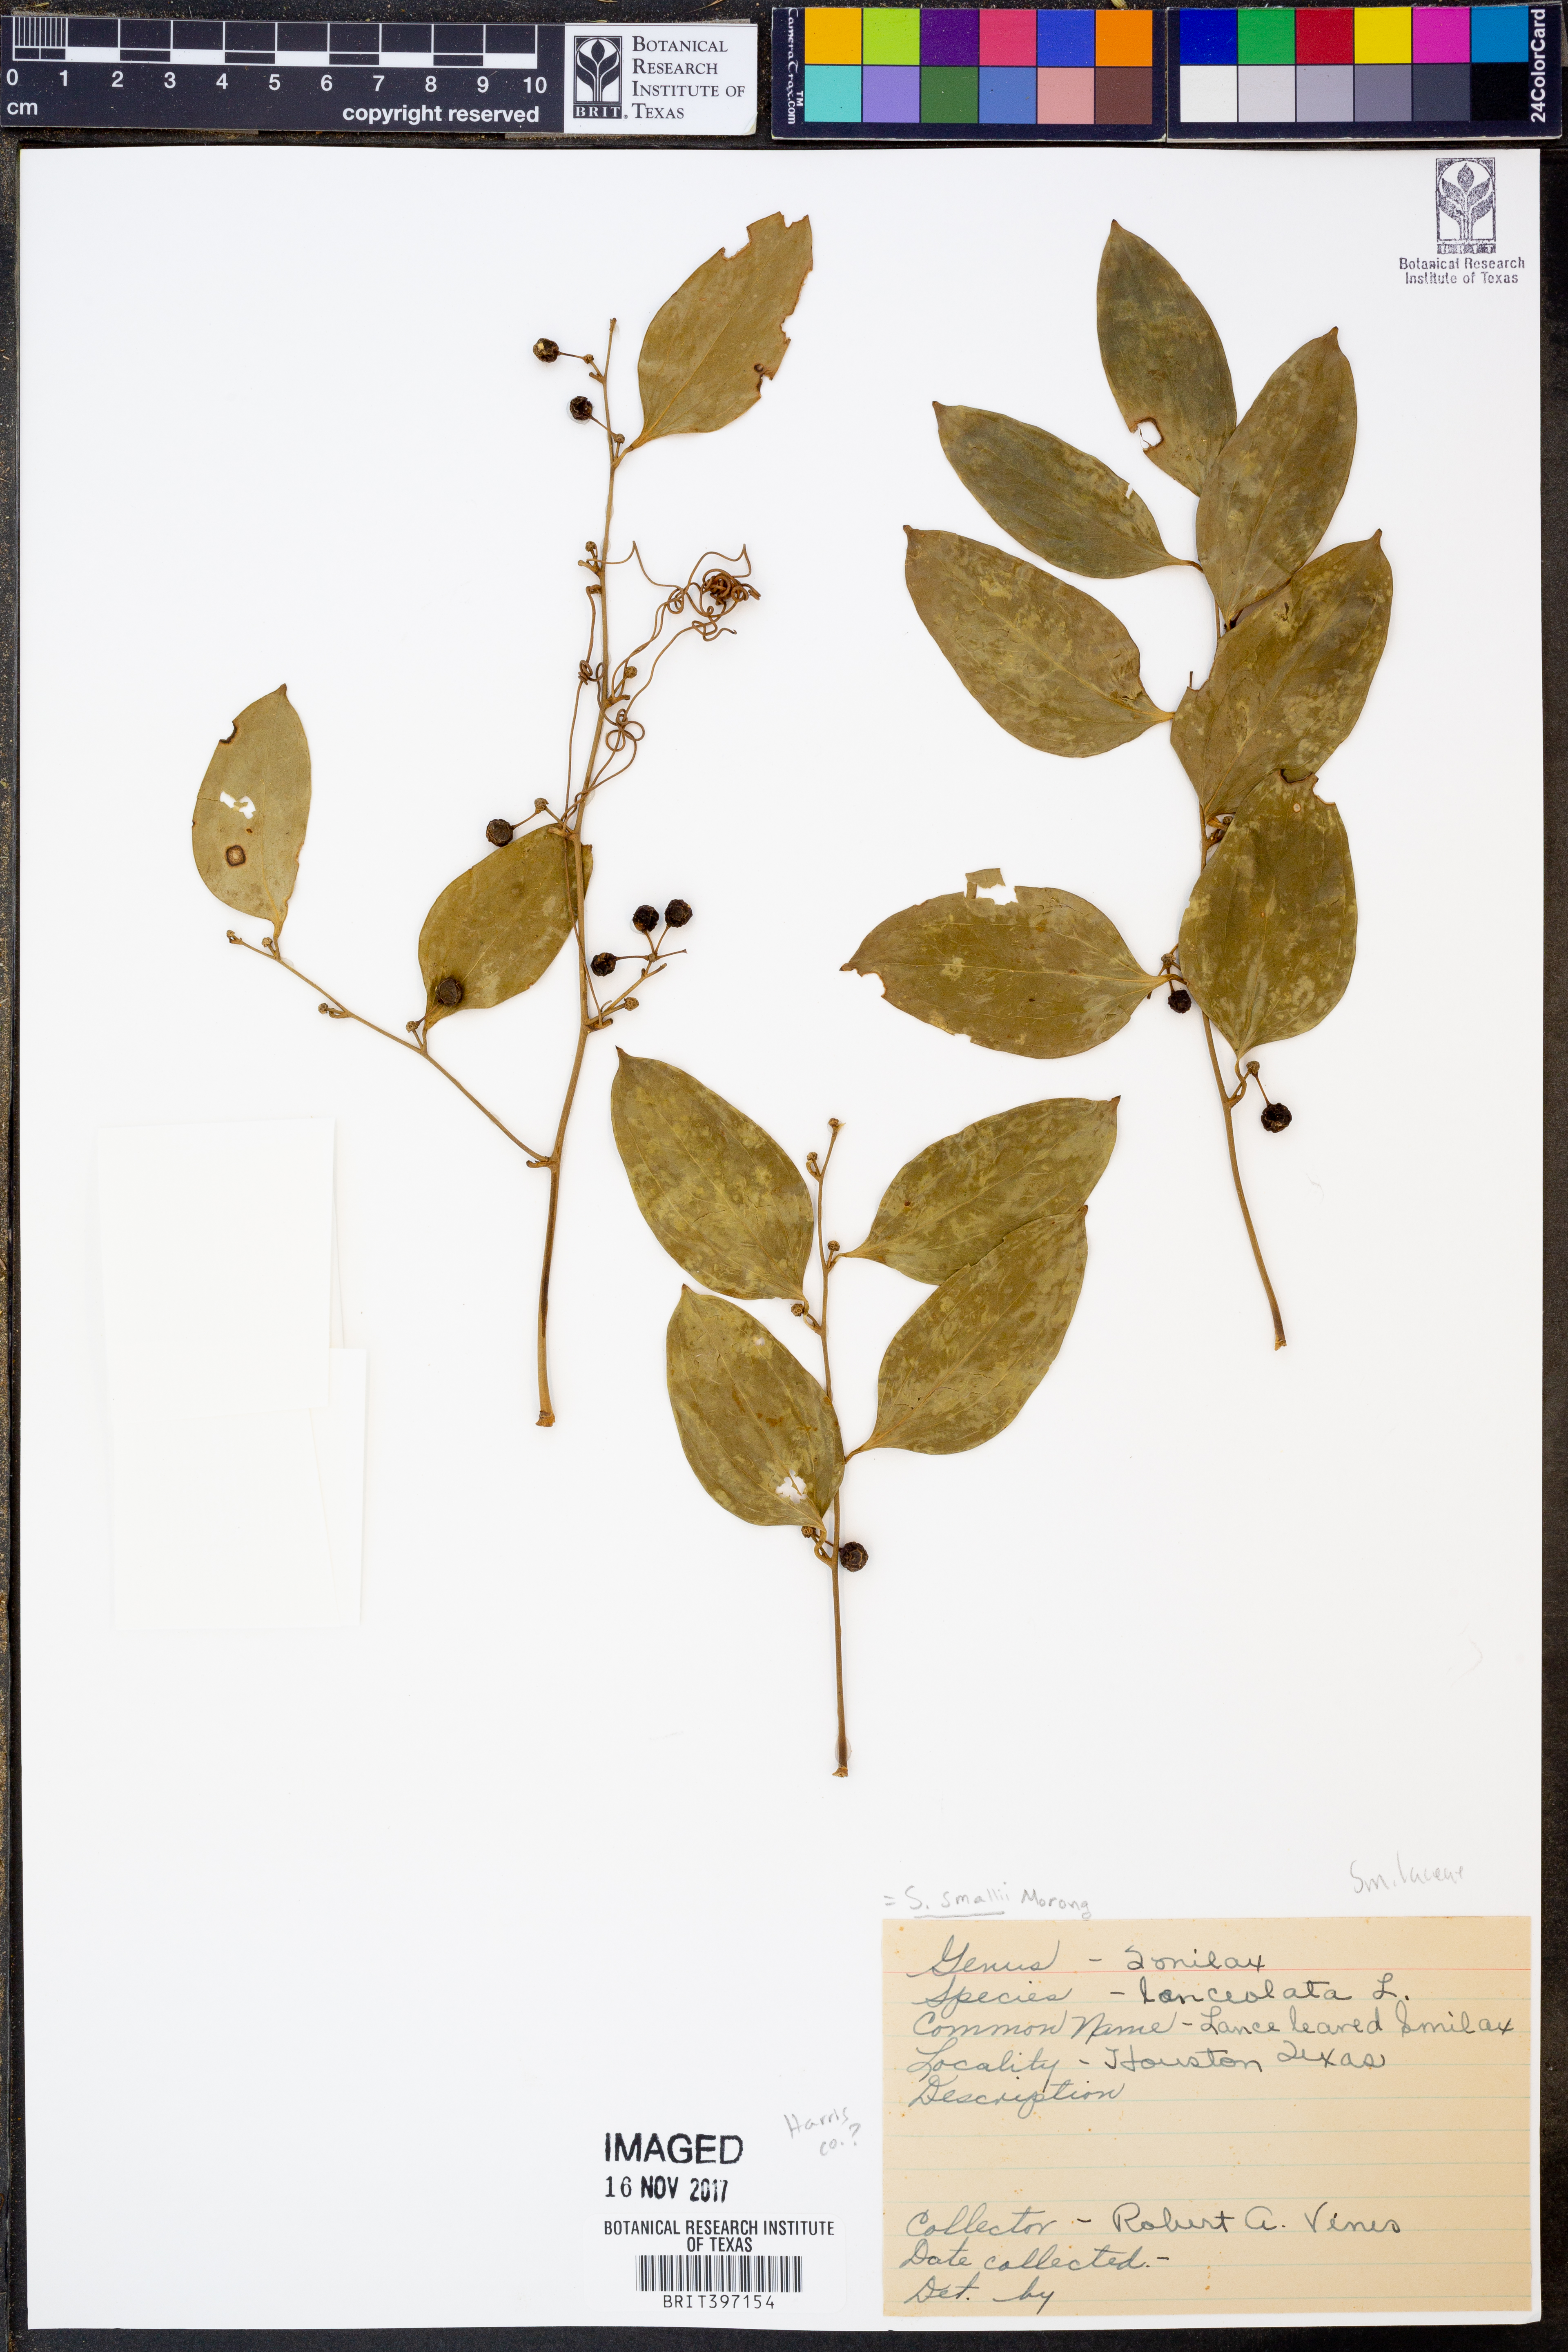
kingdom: Plantae
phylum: Tracheophyta
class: Liliopsida
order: Liliales
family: Smilacaceae
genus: Smilax
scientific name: Smilax laurifolia
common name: Bamboovine
